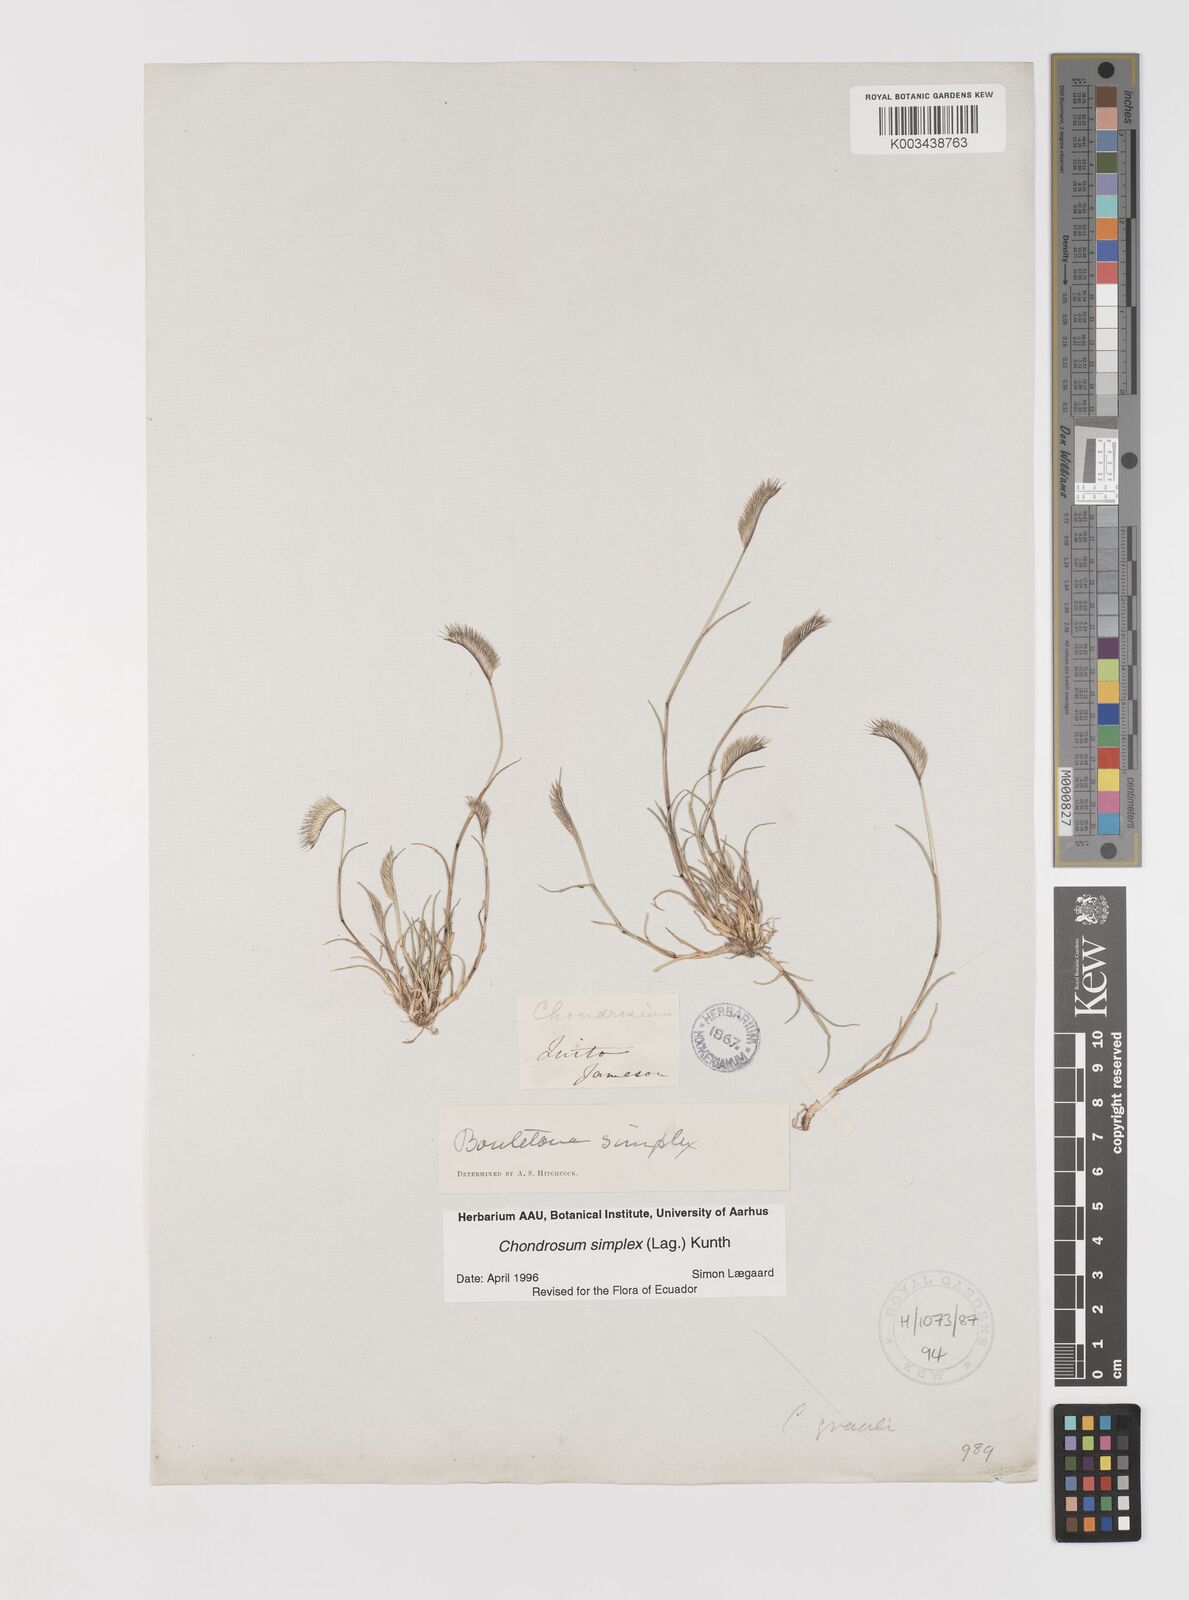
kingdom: Plantae
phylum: Tracheophyta
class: Liliopsida
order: Poales
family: Poaceae
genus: Bouteloua
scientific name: Bouteloua simplex
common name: Mat grama
